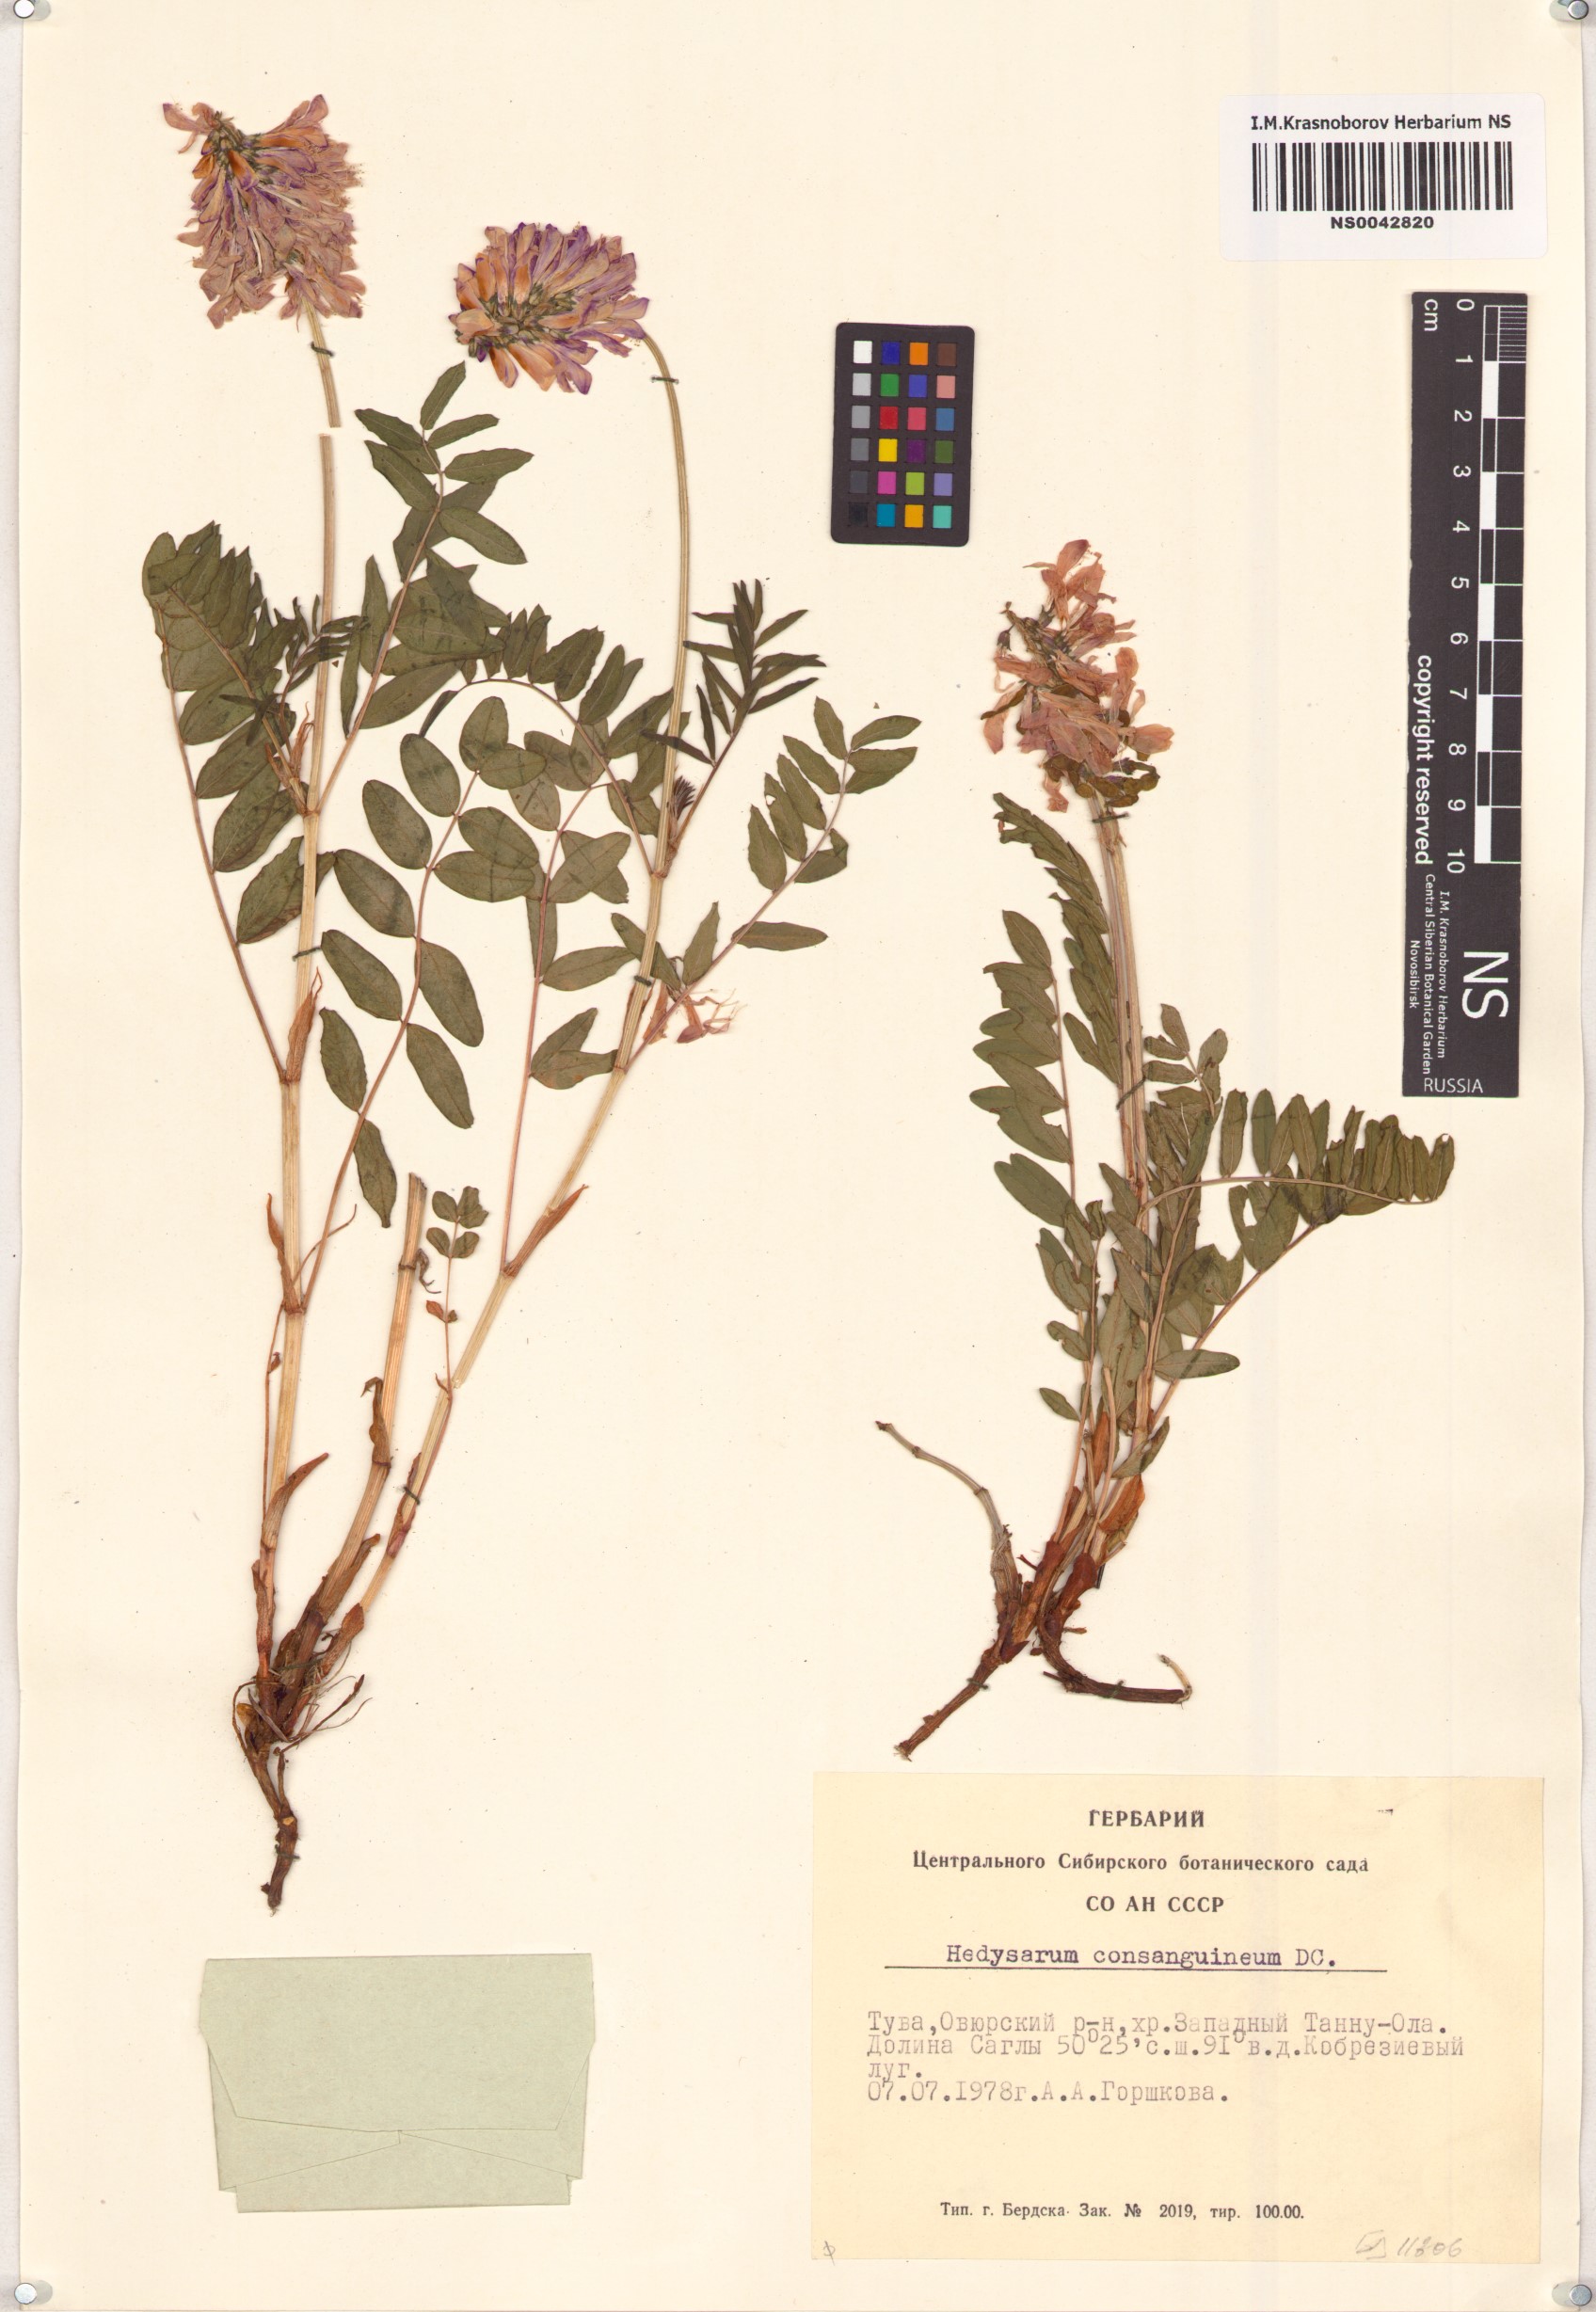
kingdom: Plantae
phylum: Tracheophyta
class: Magnoliopsida
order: Fabales
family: Fabaceae
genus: Hedysarum
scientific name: Hedysarum consanguineum
